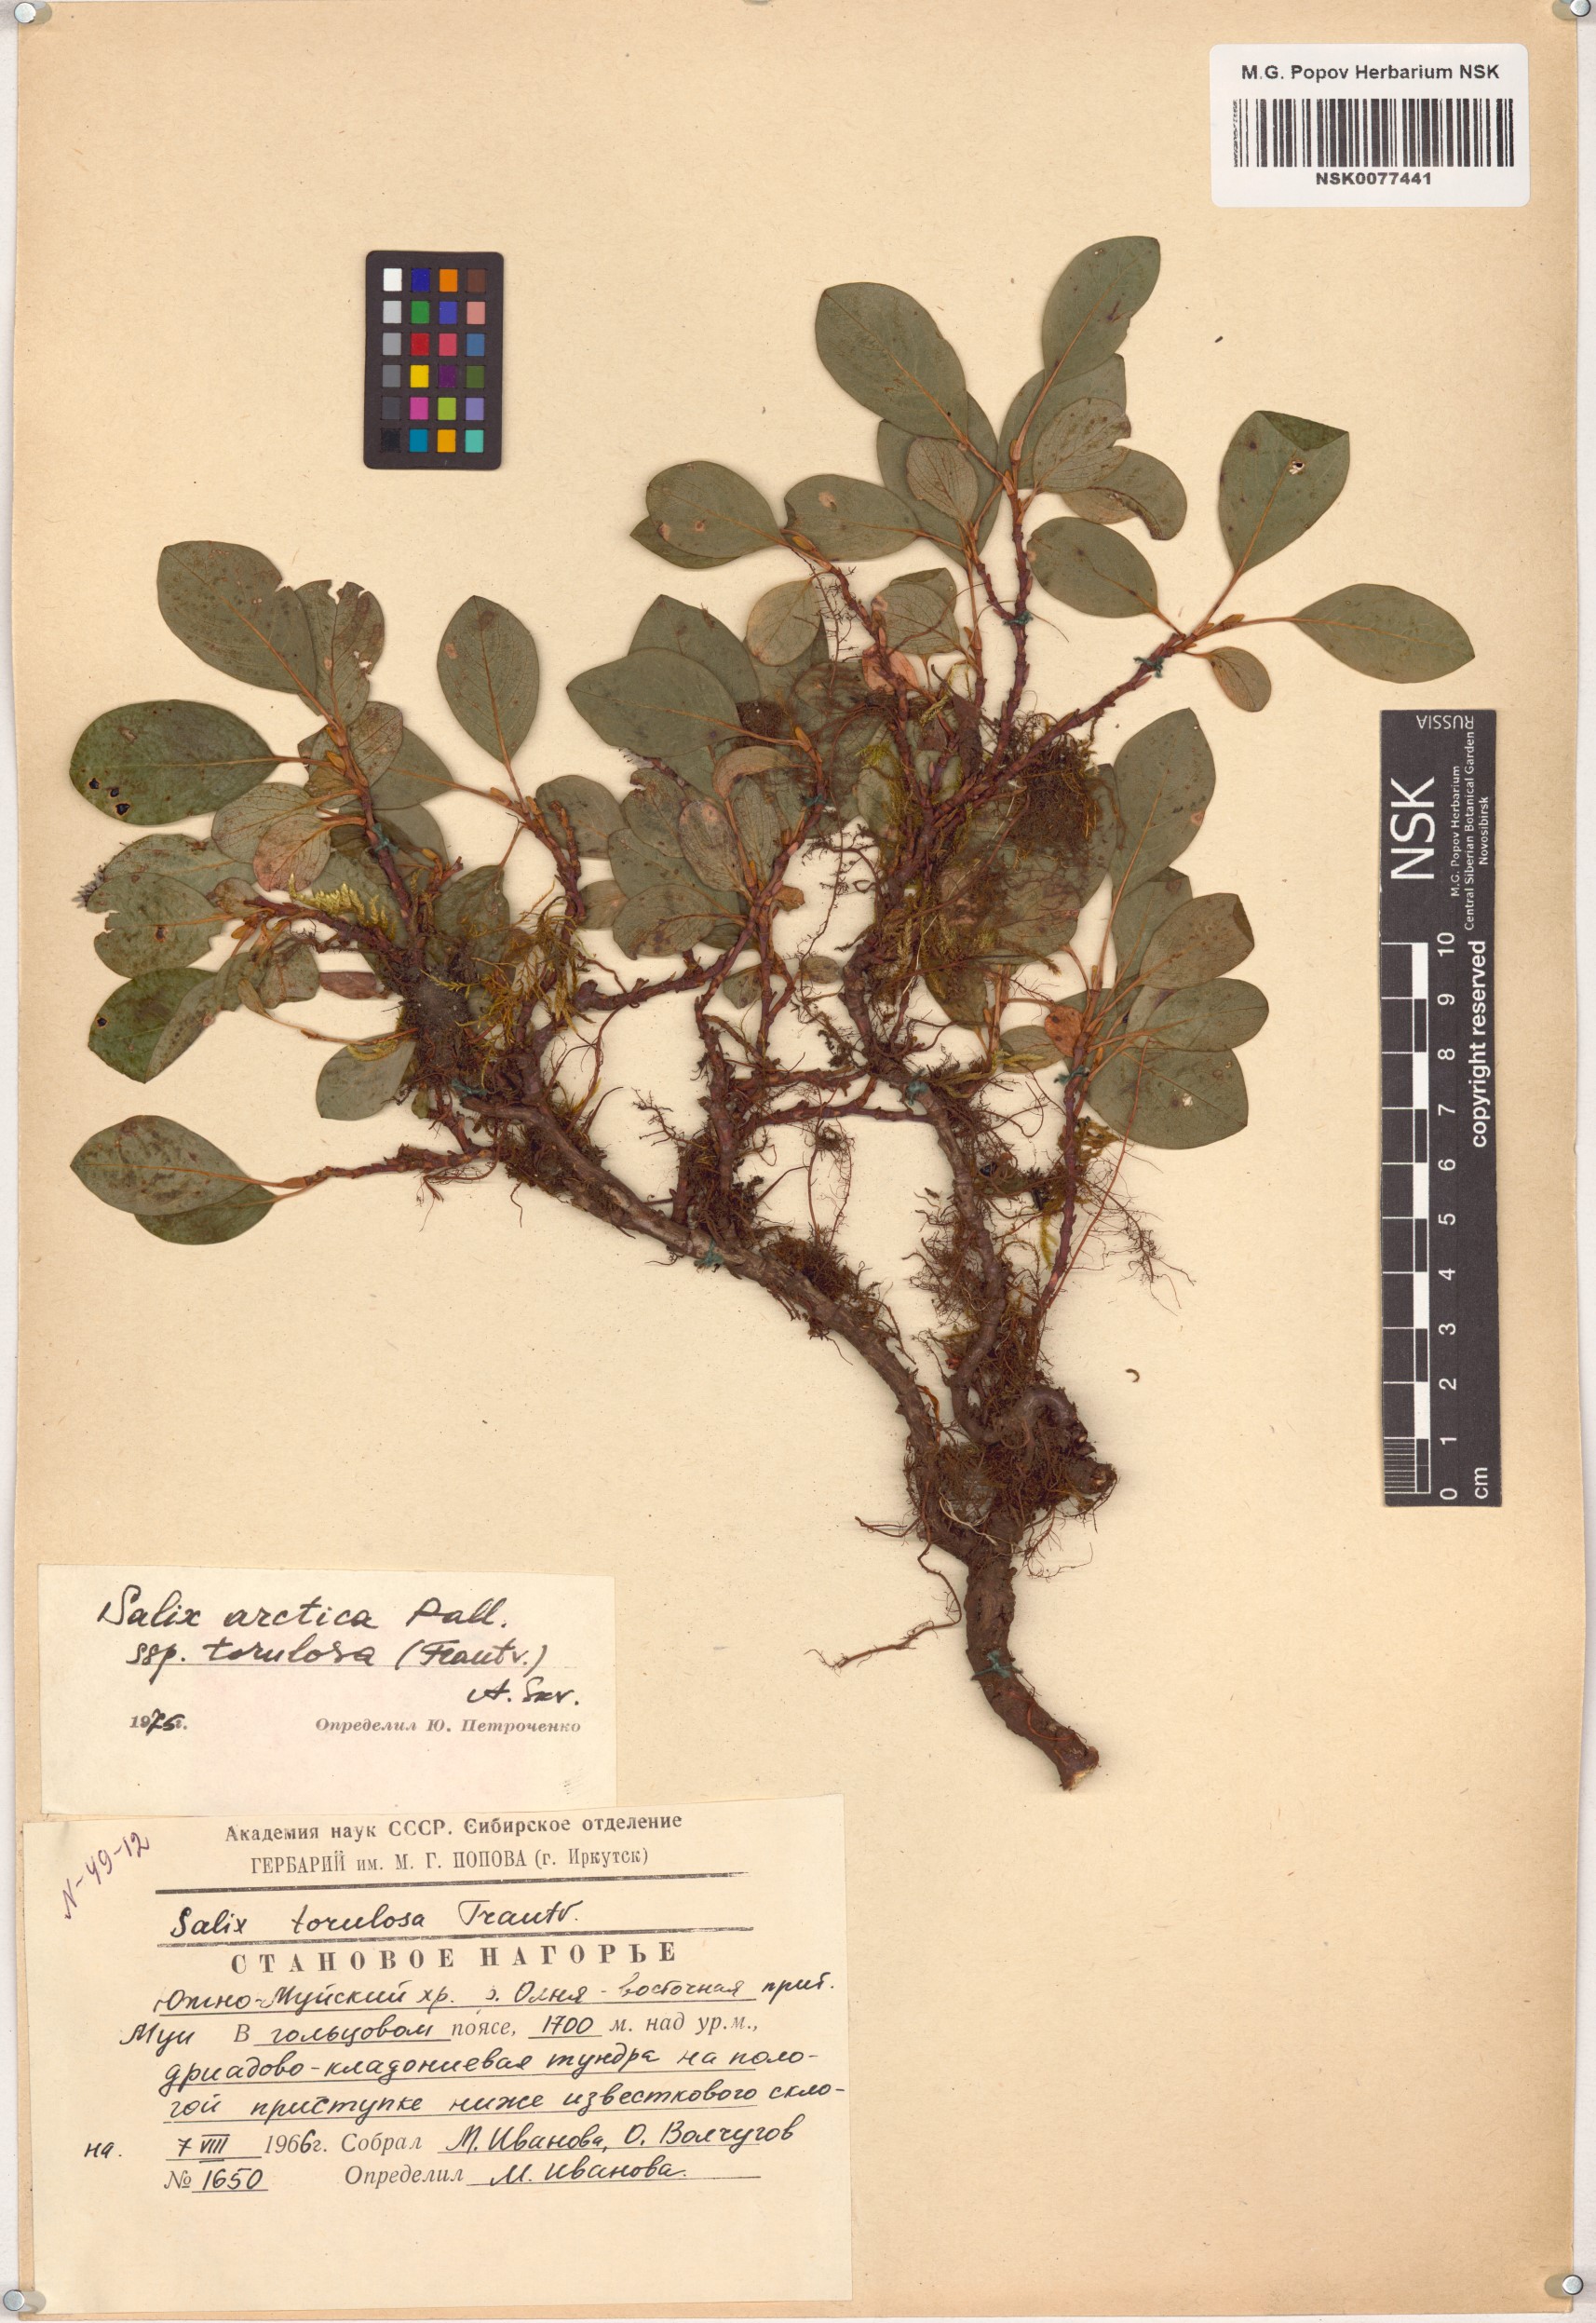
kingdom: Plantae
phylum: Tracheophyta
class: Magnoliopsida
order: Malpighiales
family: Salicaceae
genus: Salix
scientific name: Salix arctica
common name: Arctic willow
